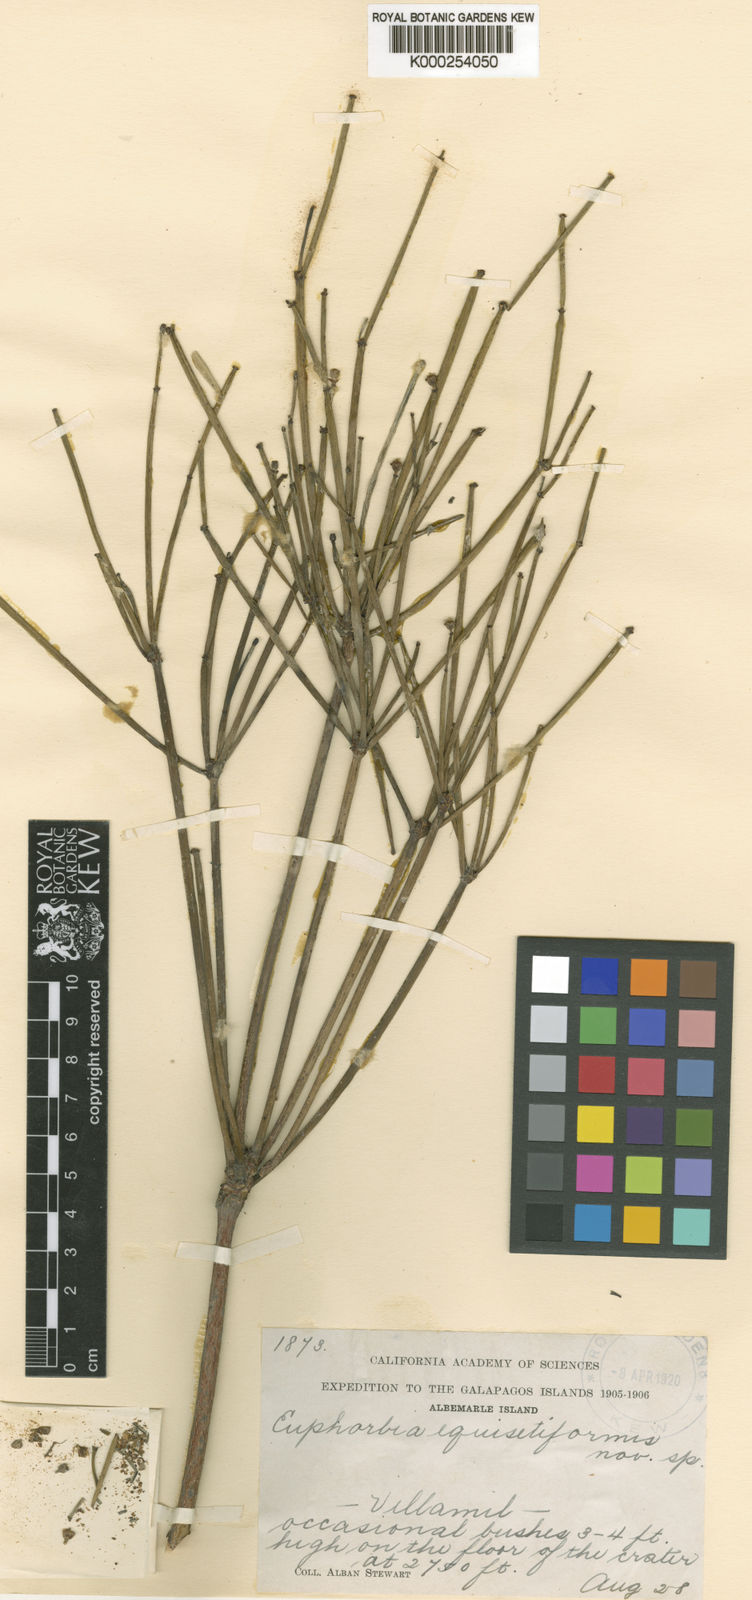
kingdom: Plantae
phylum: Tracheophyta
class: Magnoliopsida
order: Malpighiales
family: Euphorbiaceae
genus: Euphorbia
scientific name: Euphorbia equisetiformis
